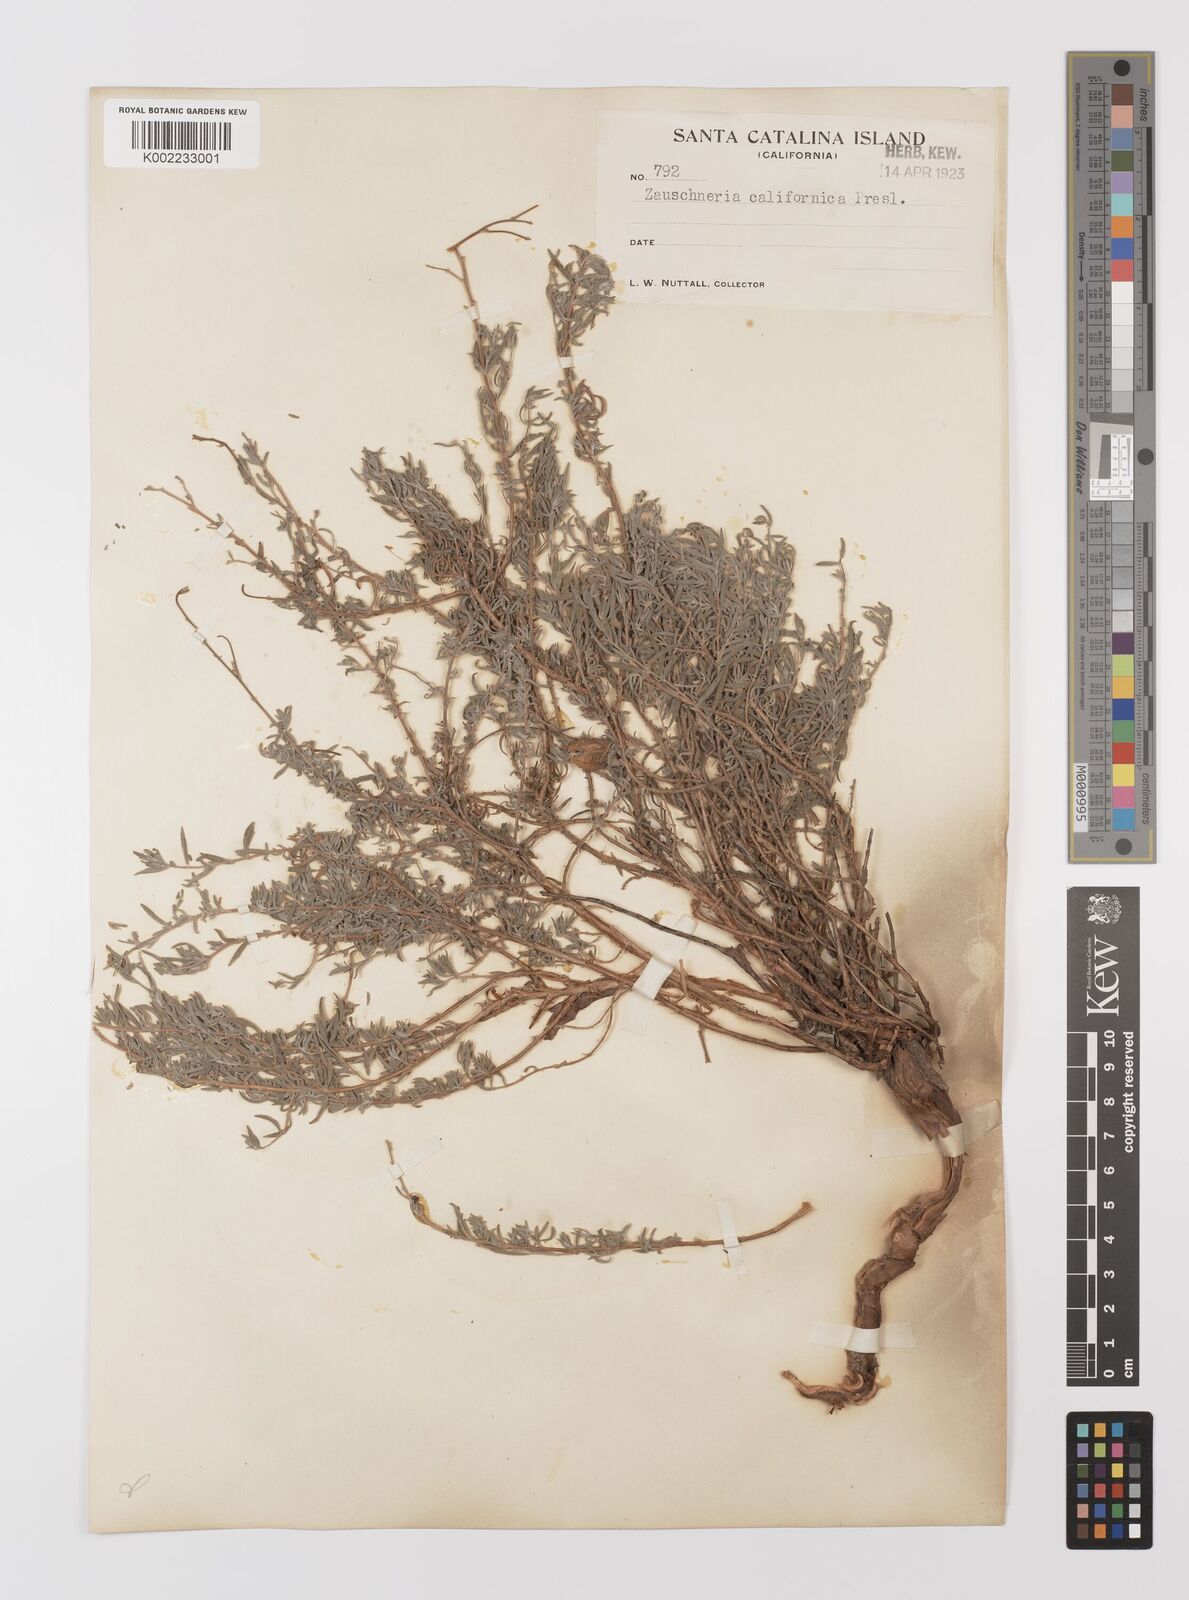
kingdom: Plantae
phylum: Tracheophyta
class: Magnoliopsida
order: Myrtales
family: Onagraceae
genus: Epilobium
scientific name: Epilobium canum
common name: California-fuchsia
